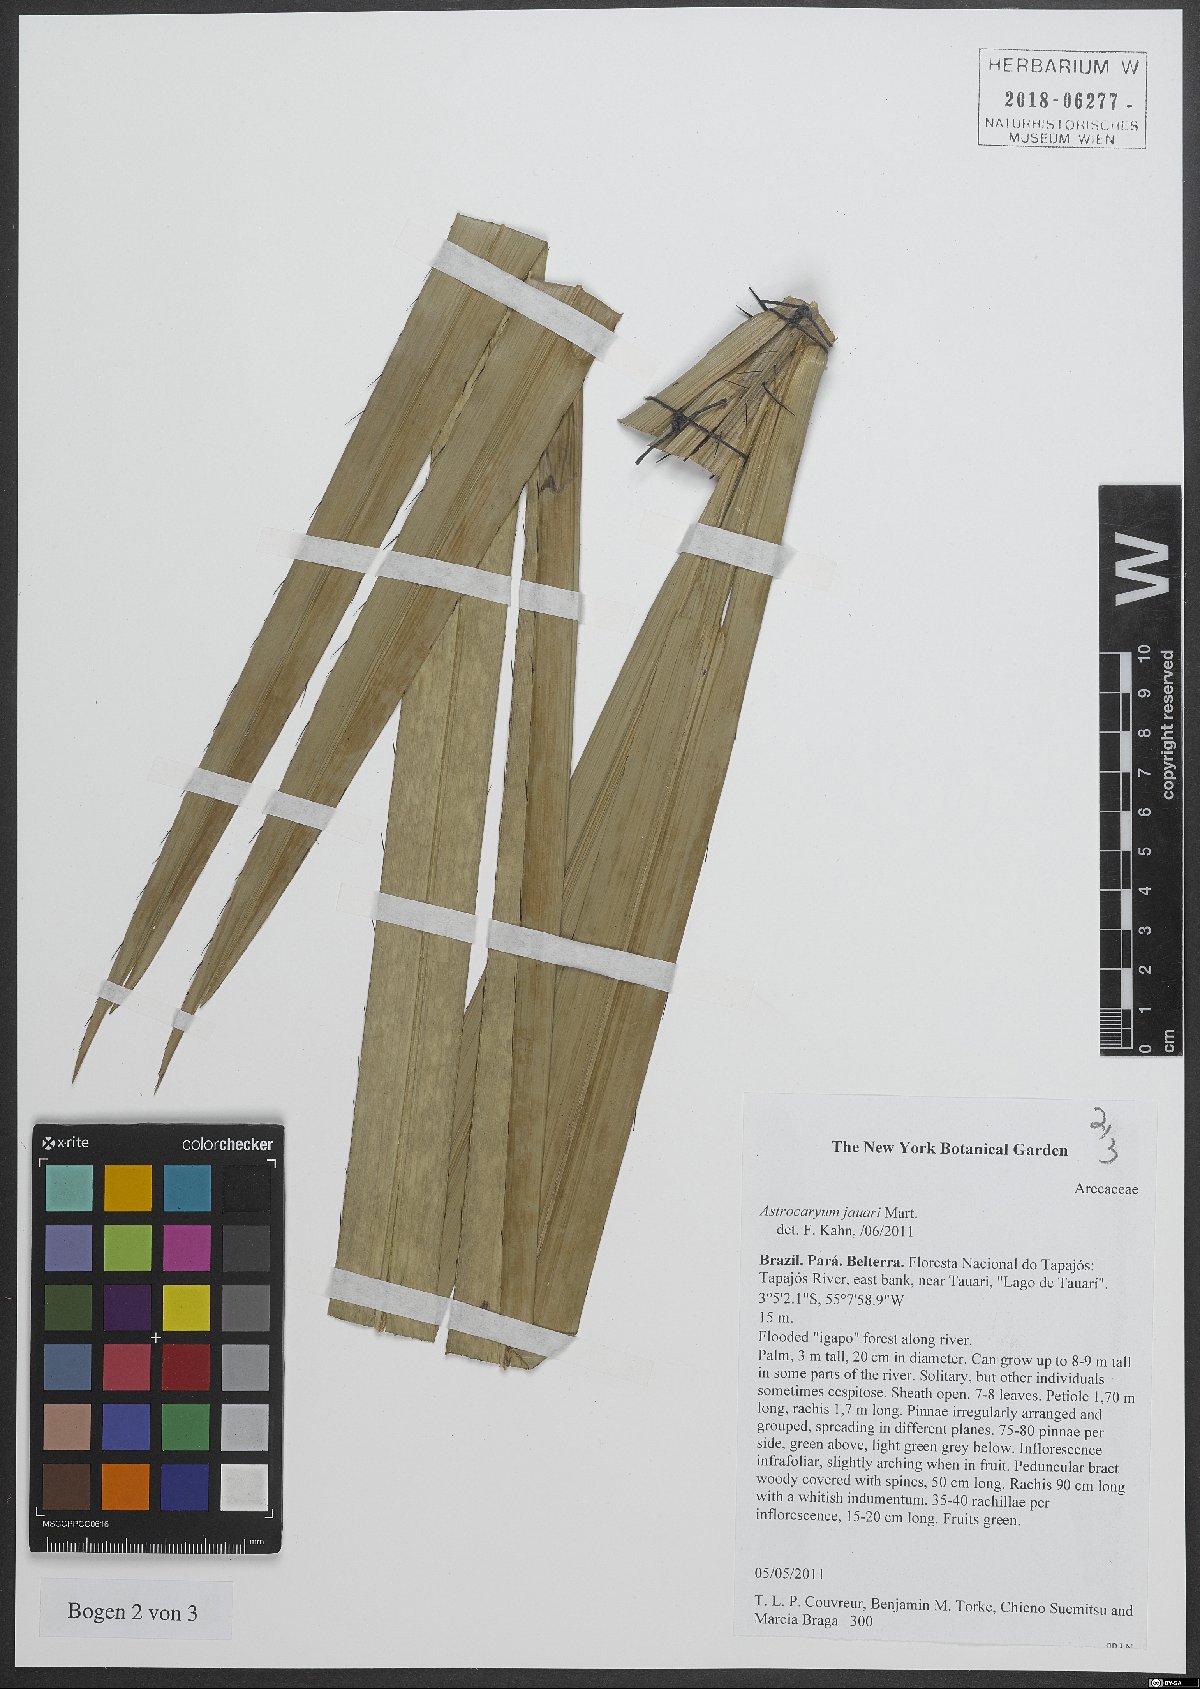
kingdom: Plantae
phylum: Tracheophyta
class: Liliopsida
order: Arecales
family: Arecaceae
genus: Astrocaryum
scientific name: Astrocaryum jauari
